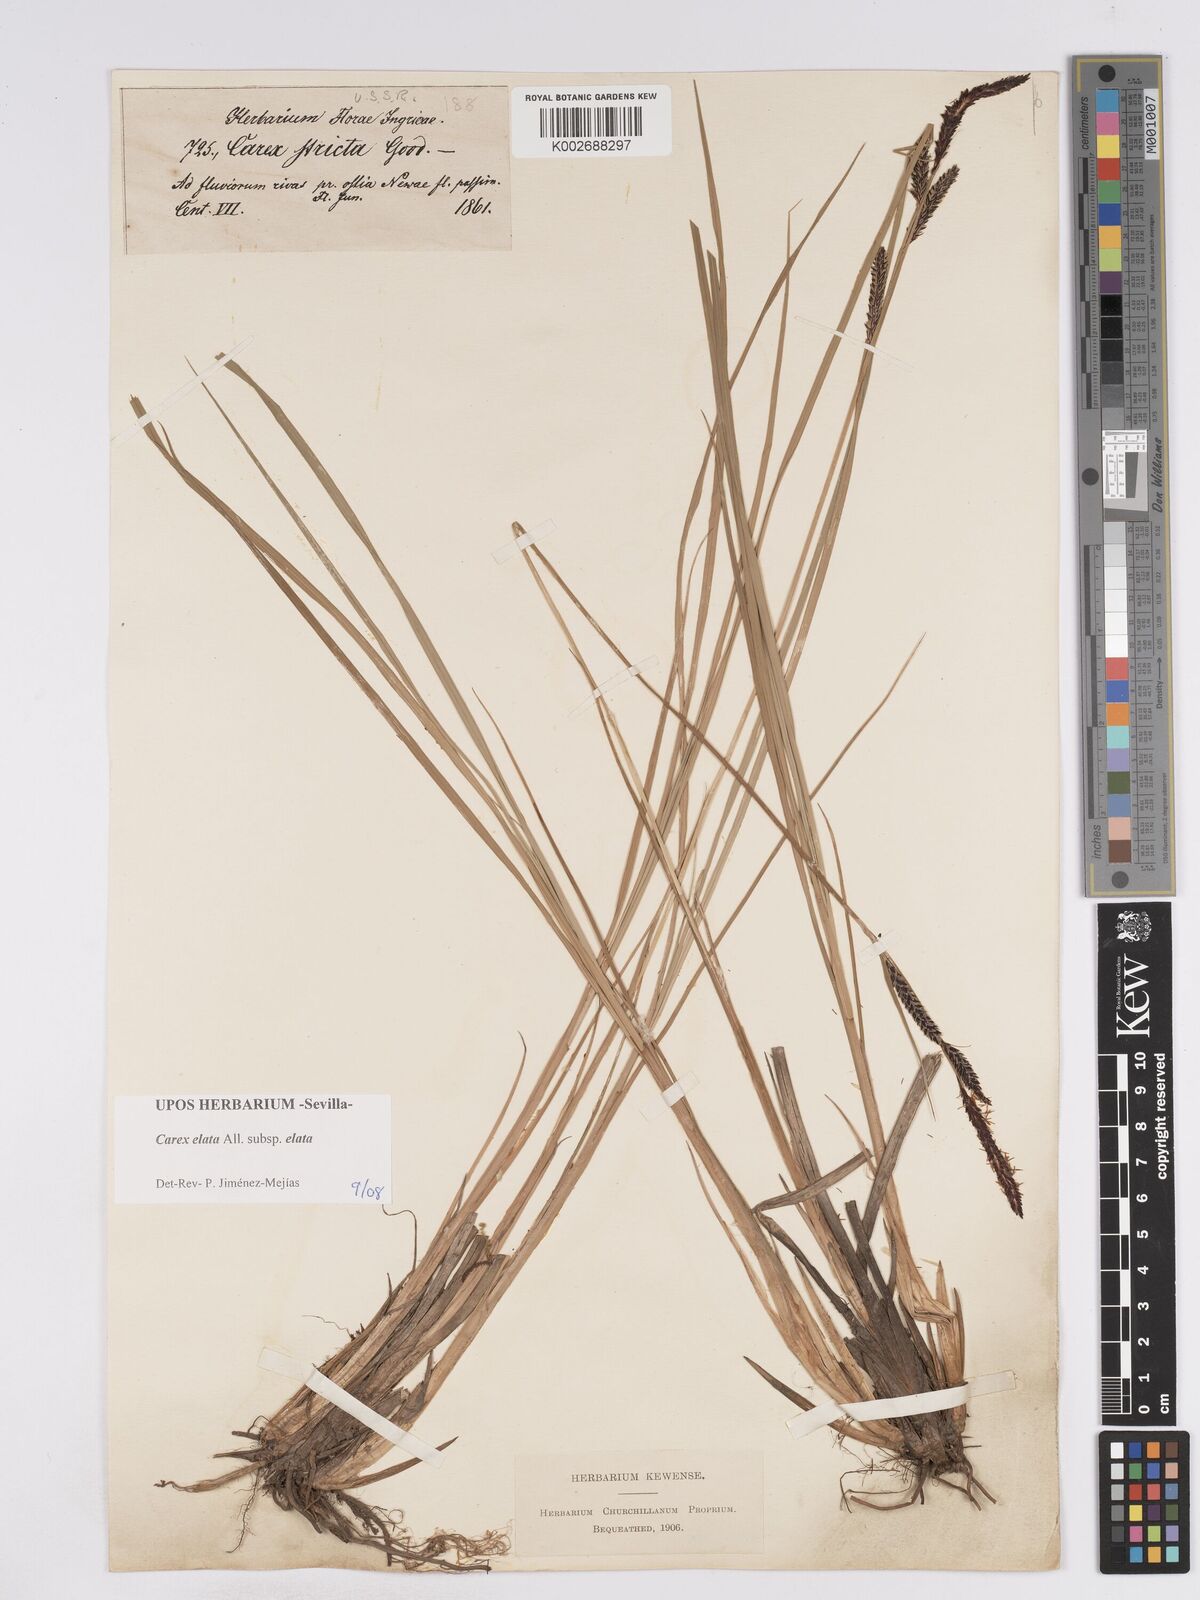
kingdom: Plantae
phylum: Tracheophyta
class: Liliopsida
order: Poales
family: Cyperaceae
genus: Carex
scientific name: Carex elata
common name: Tufted sedge
